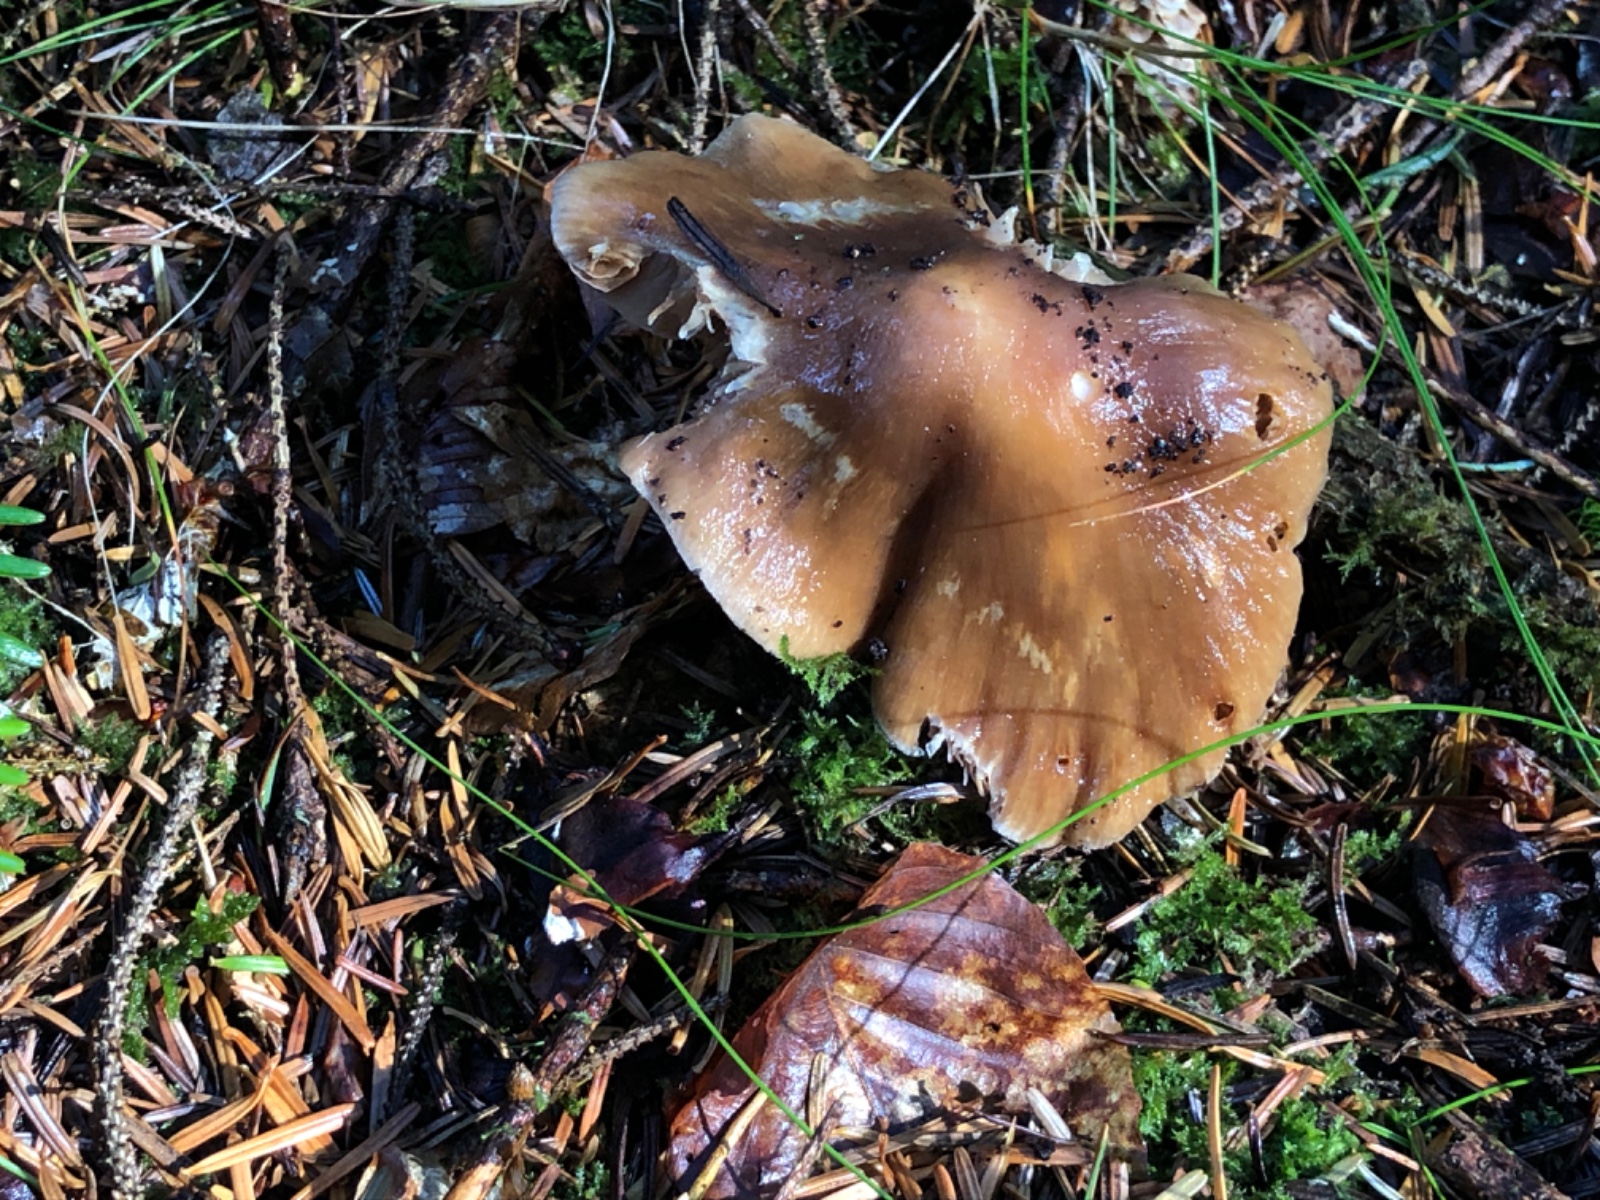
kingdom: Fungi
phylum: Basidiomycota
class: Agaricomycetes
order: Agaricales
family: Cortinariaceae
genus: Cortinarius
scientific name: Cortinarius
